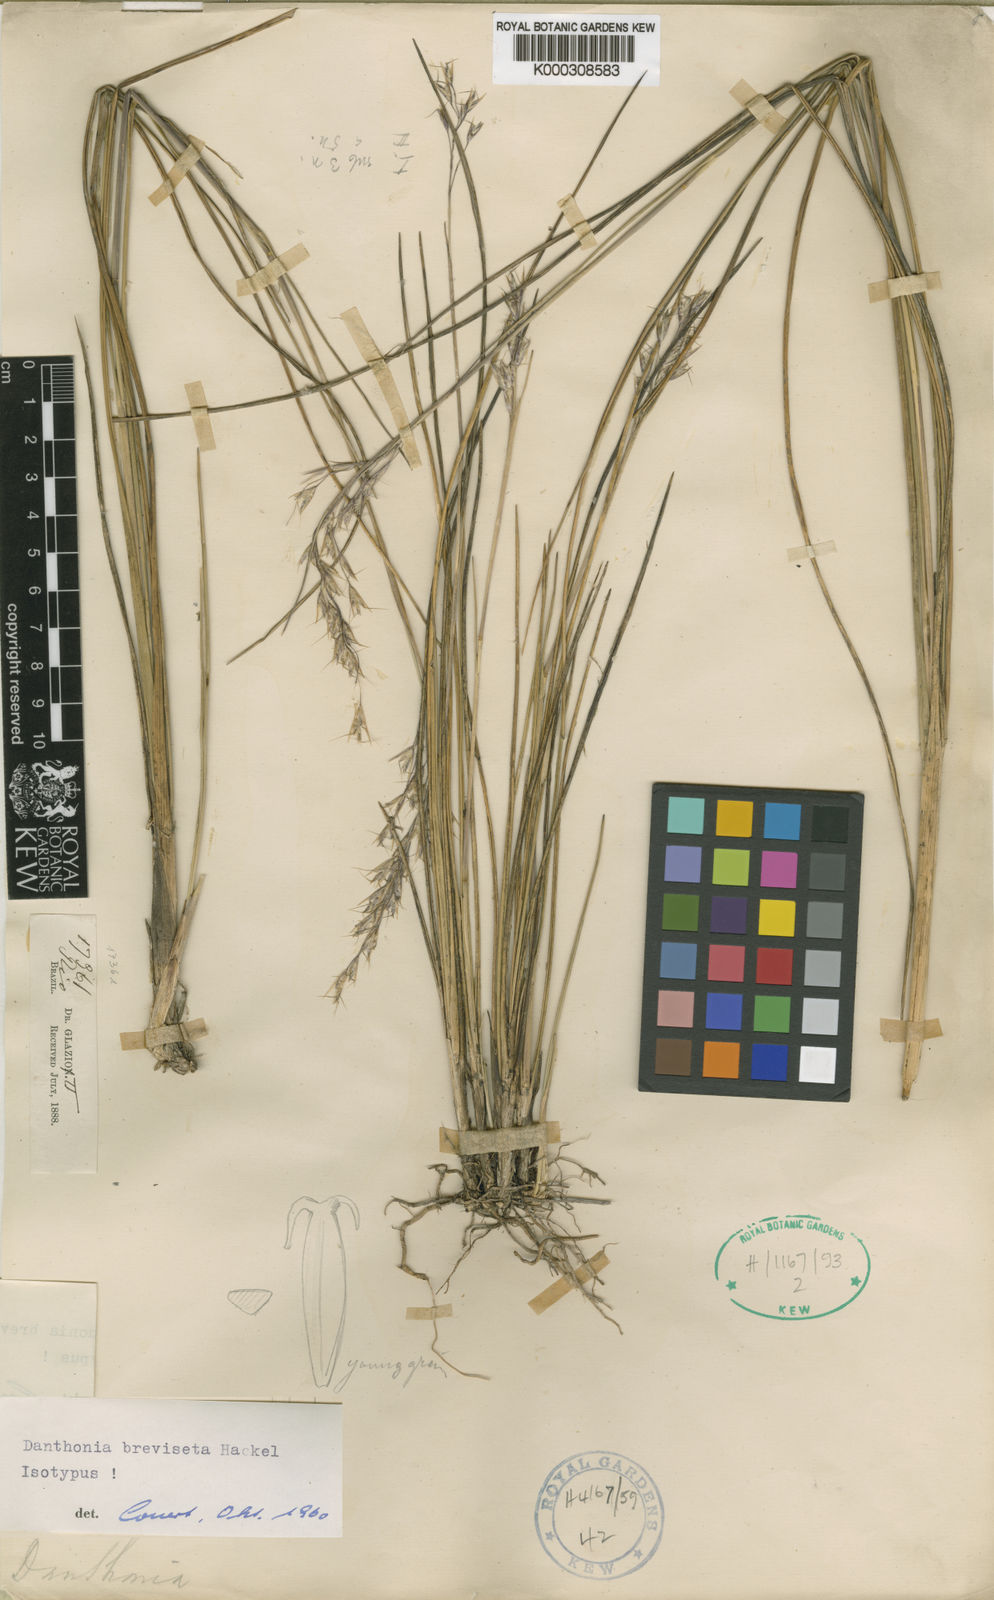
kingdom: Plantae
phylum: Tracheophyta
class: Liliopsida
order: Poales
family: Poaceae
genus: Danthonia
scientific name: Danthonia breviseta
